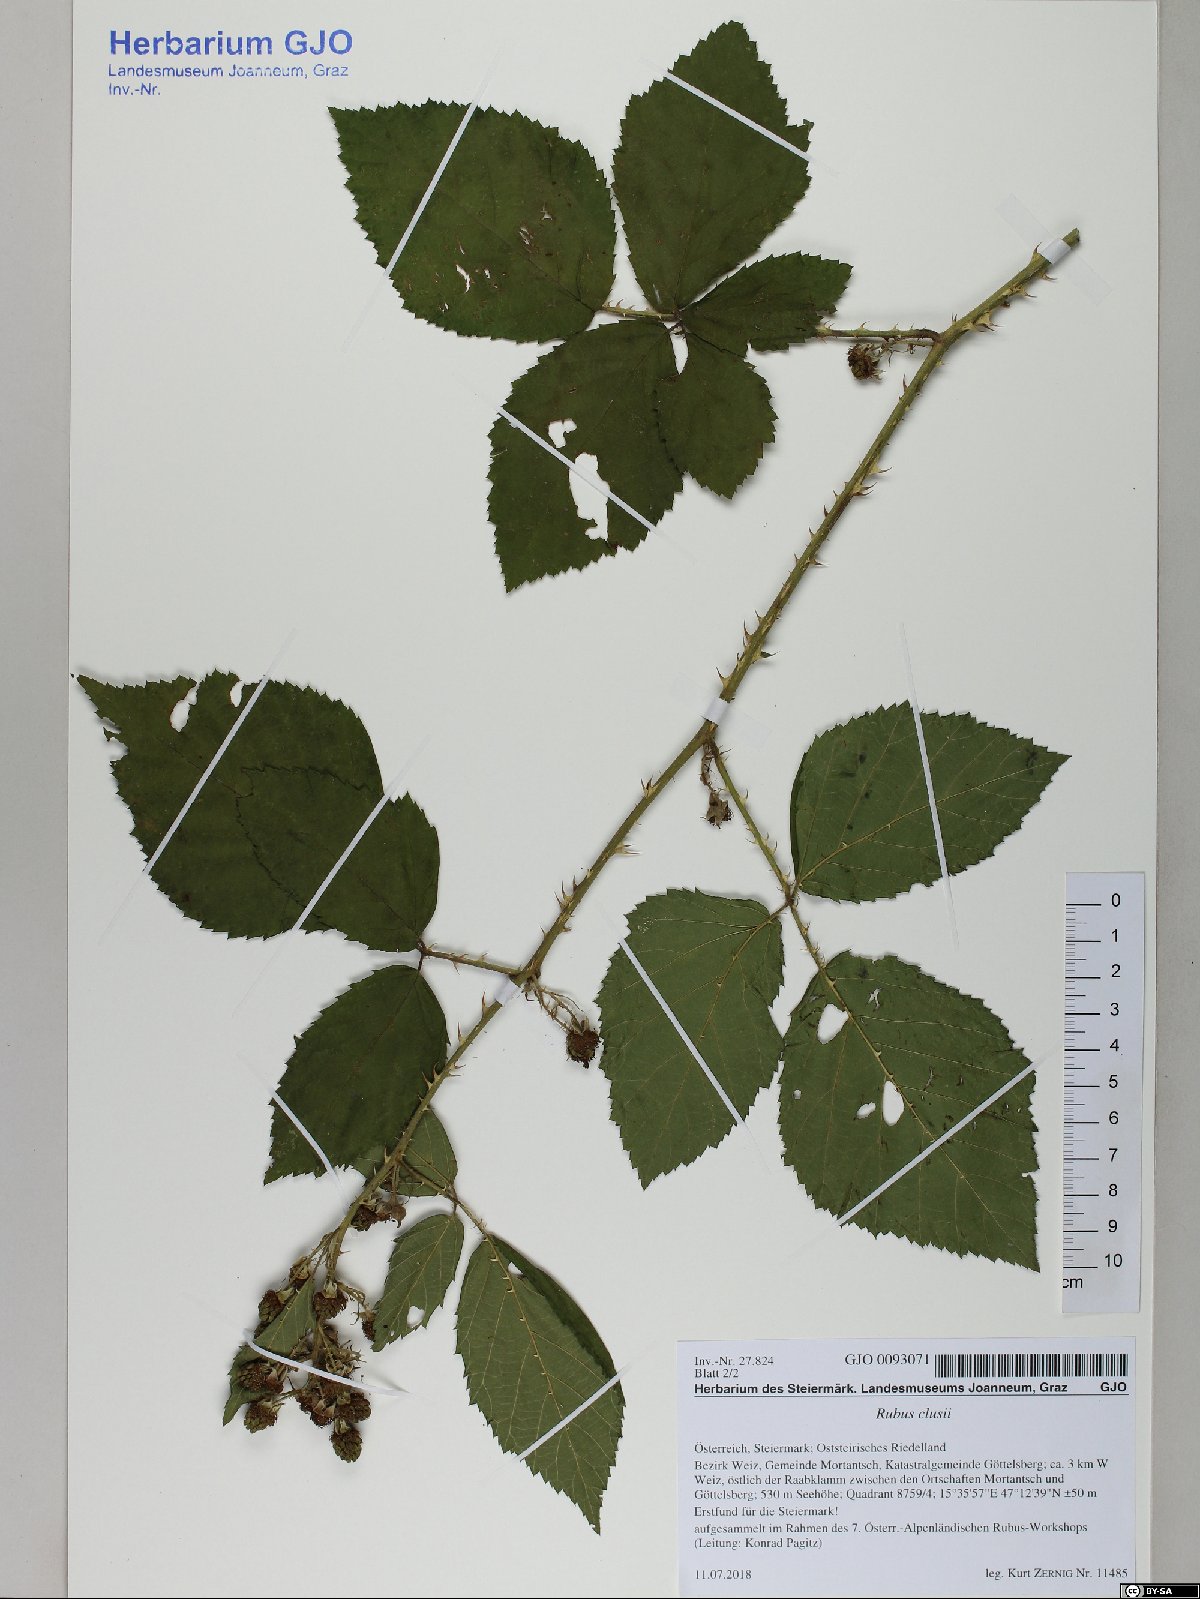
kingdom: Plantae
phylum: Tracheophyta
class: Magnoliopsida
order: Rosales
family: Rosaceae
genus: Rubus
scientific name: Rubus clusii
